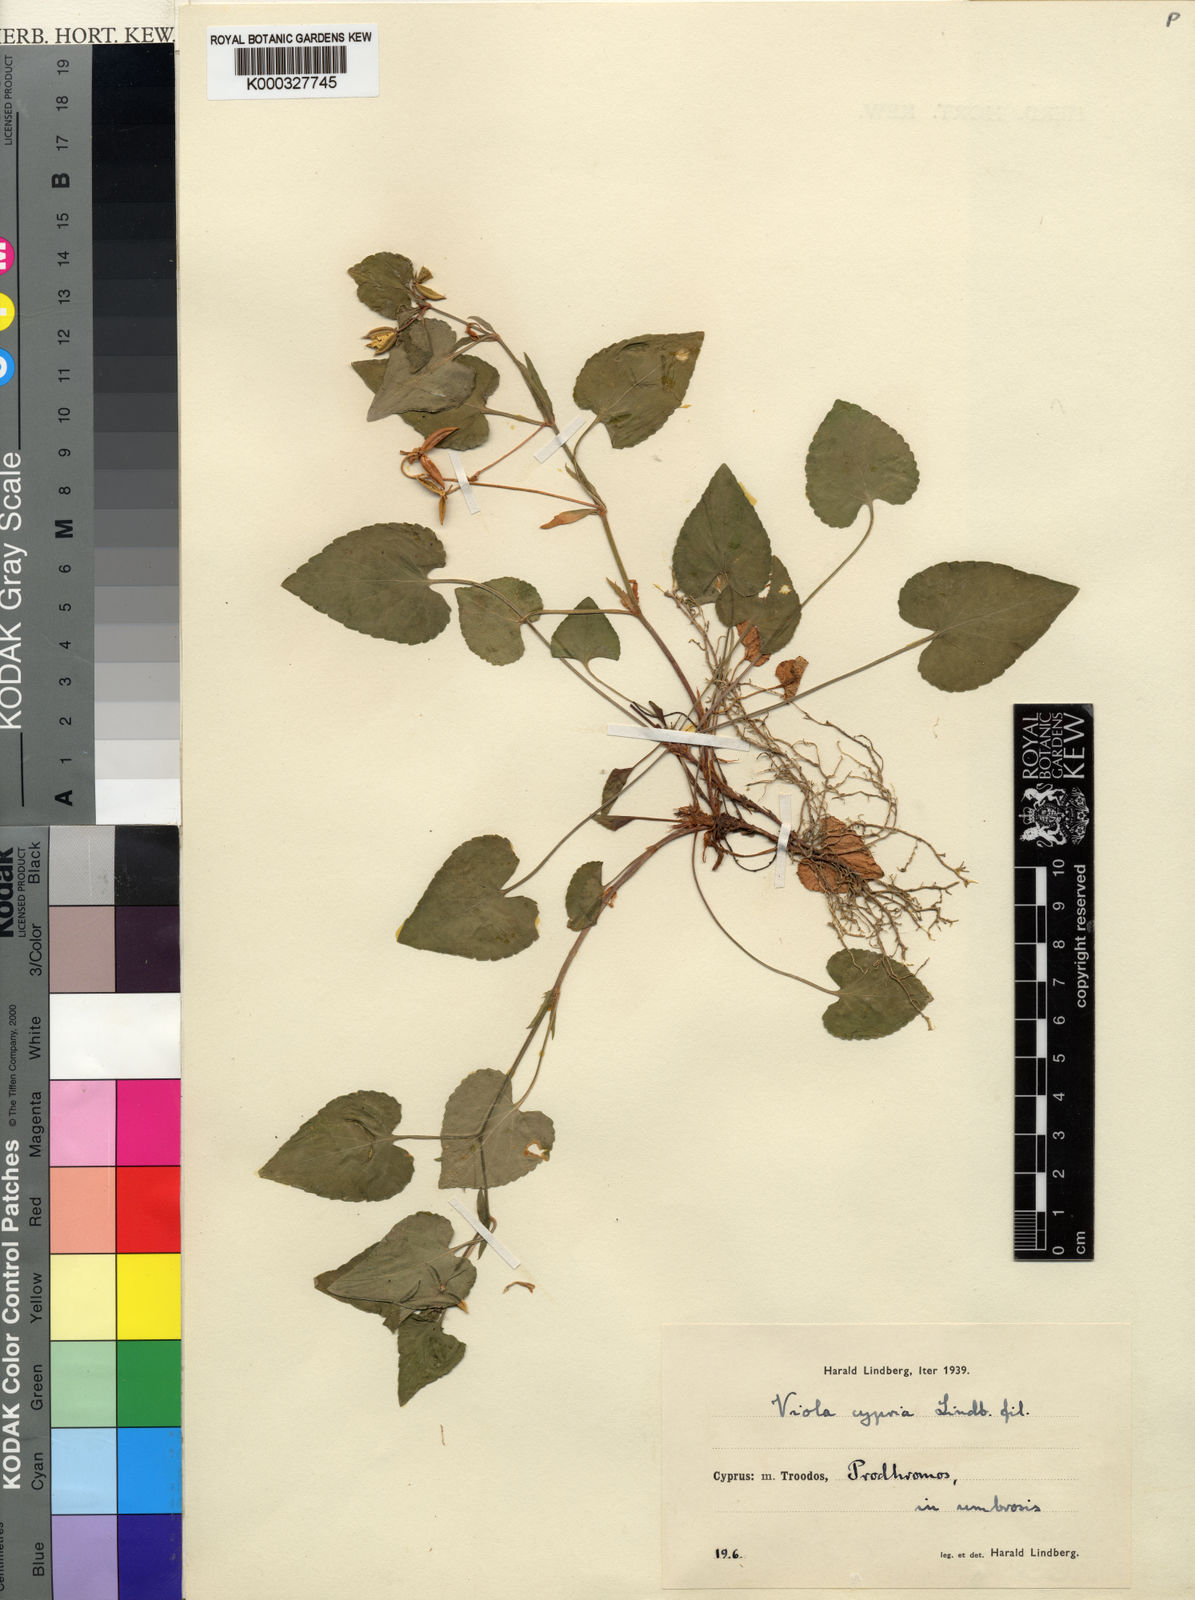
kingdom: Plantae
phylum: Tracheophyta
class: Magnoliopsida
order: Malpighiales
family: Violaceae
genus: Viola
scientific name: Viola sieheana
